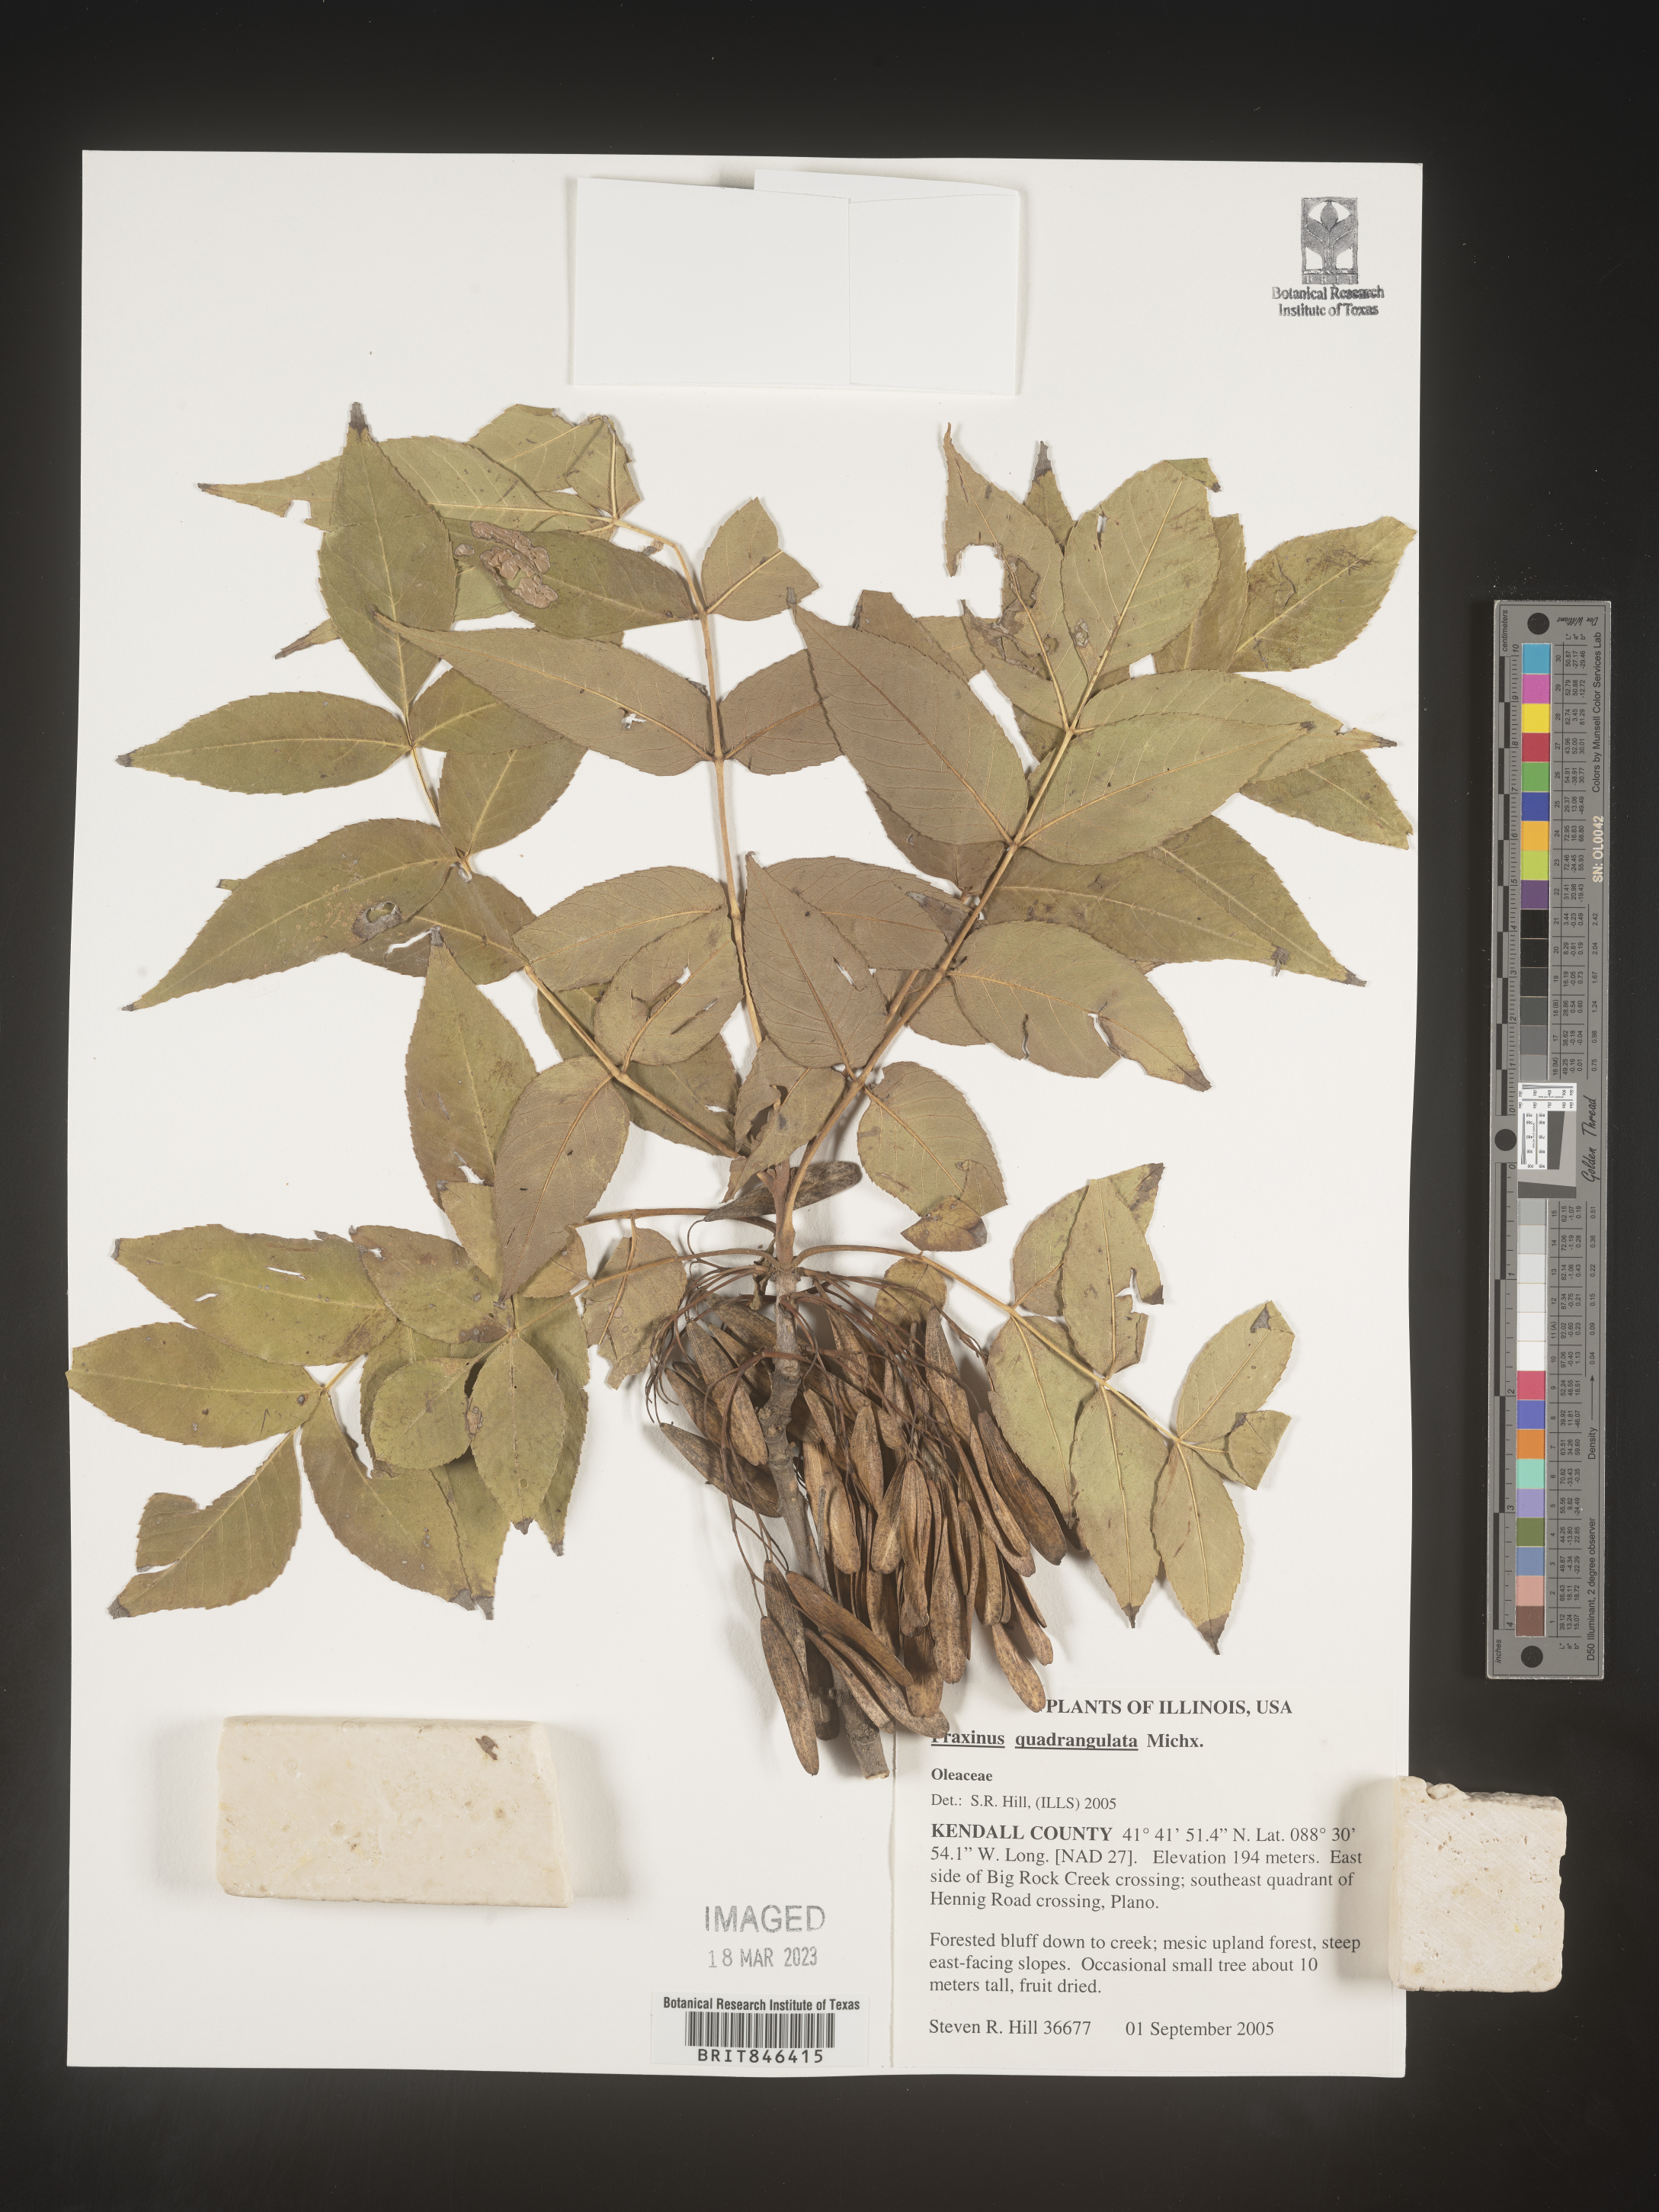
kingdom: Plantae
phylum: Tracheophyta
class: Magnoliopsida
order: Lamiales
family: Oleaceae
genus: Fraxinus
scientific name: Fraxinus quadrangulata
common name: Blue ash
